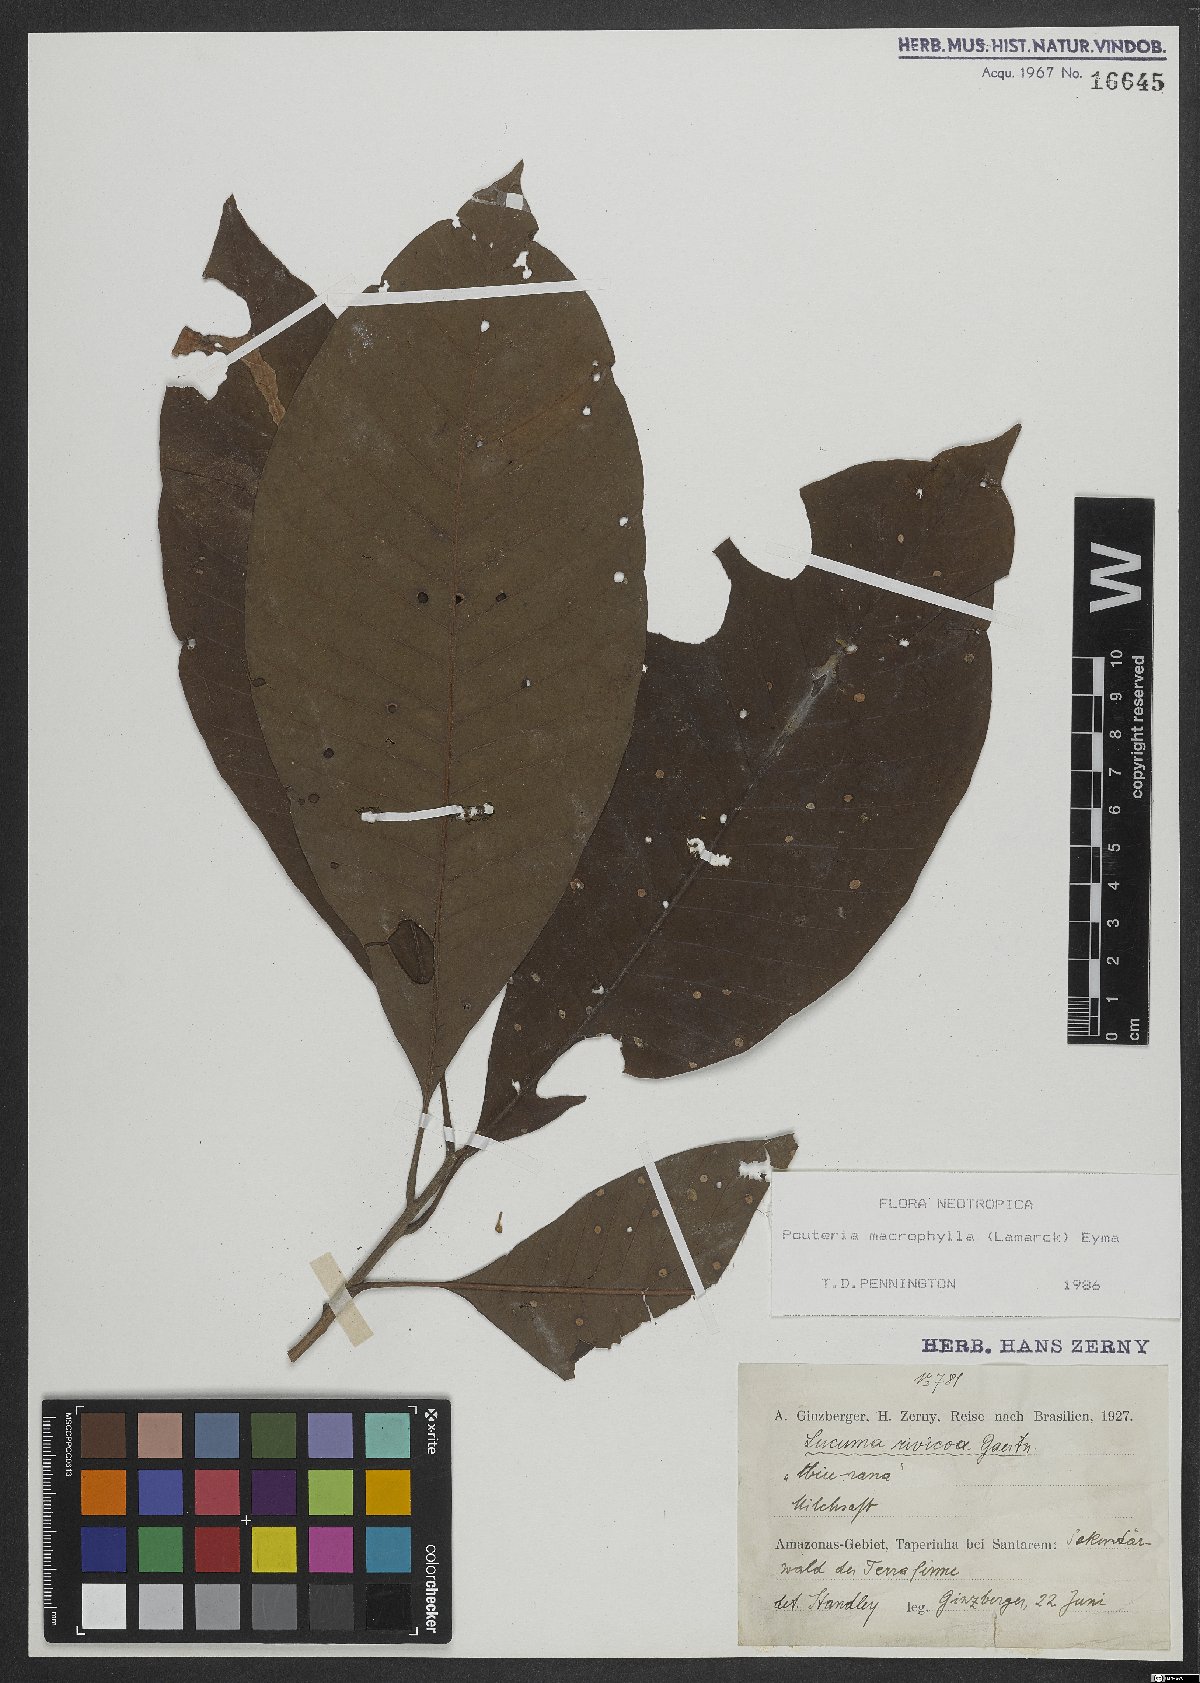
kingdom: Plantae
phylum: Tracheophyta
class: Magnoliopsida
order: Ericales
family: Sapotaceae
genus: Pouteria
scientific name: Pouteria macrophylla
